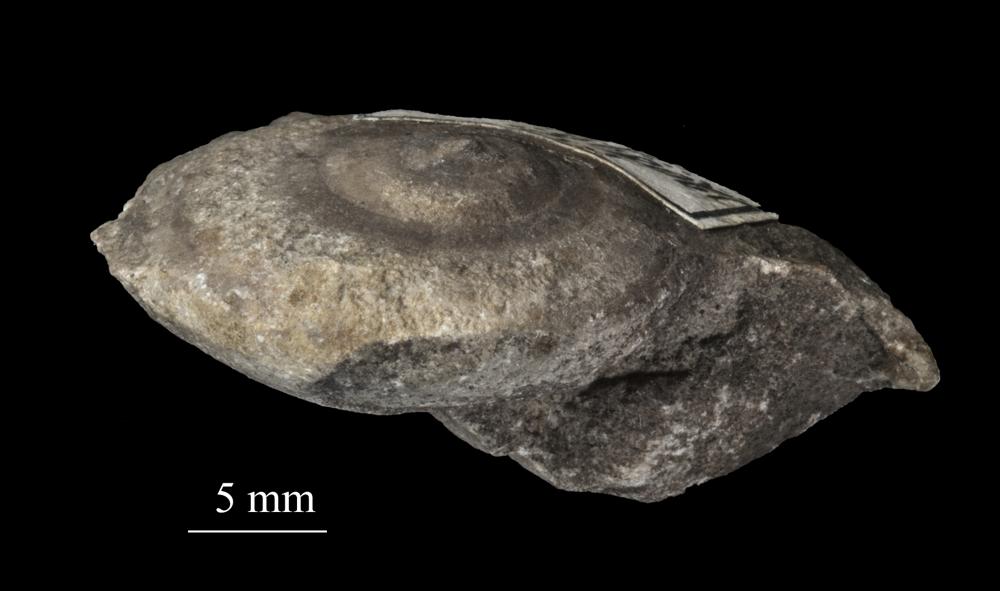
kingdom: Animalia
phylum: Mollusca
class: Gastropoda
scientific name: Gastropoda
